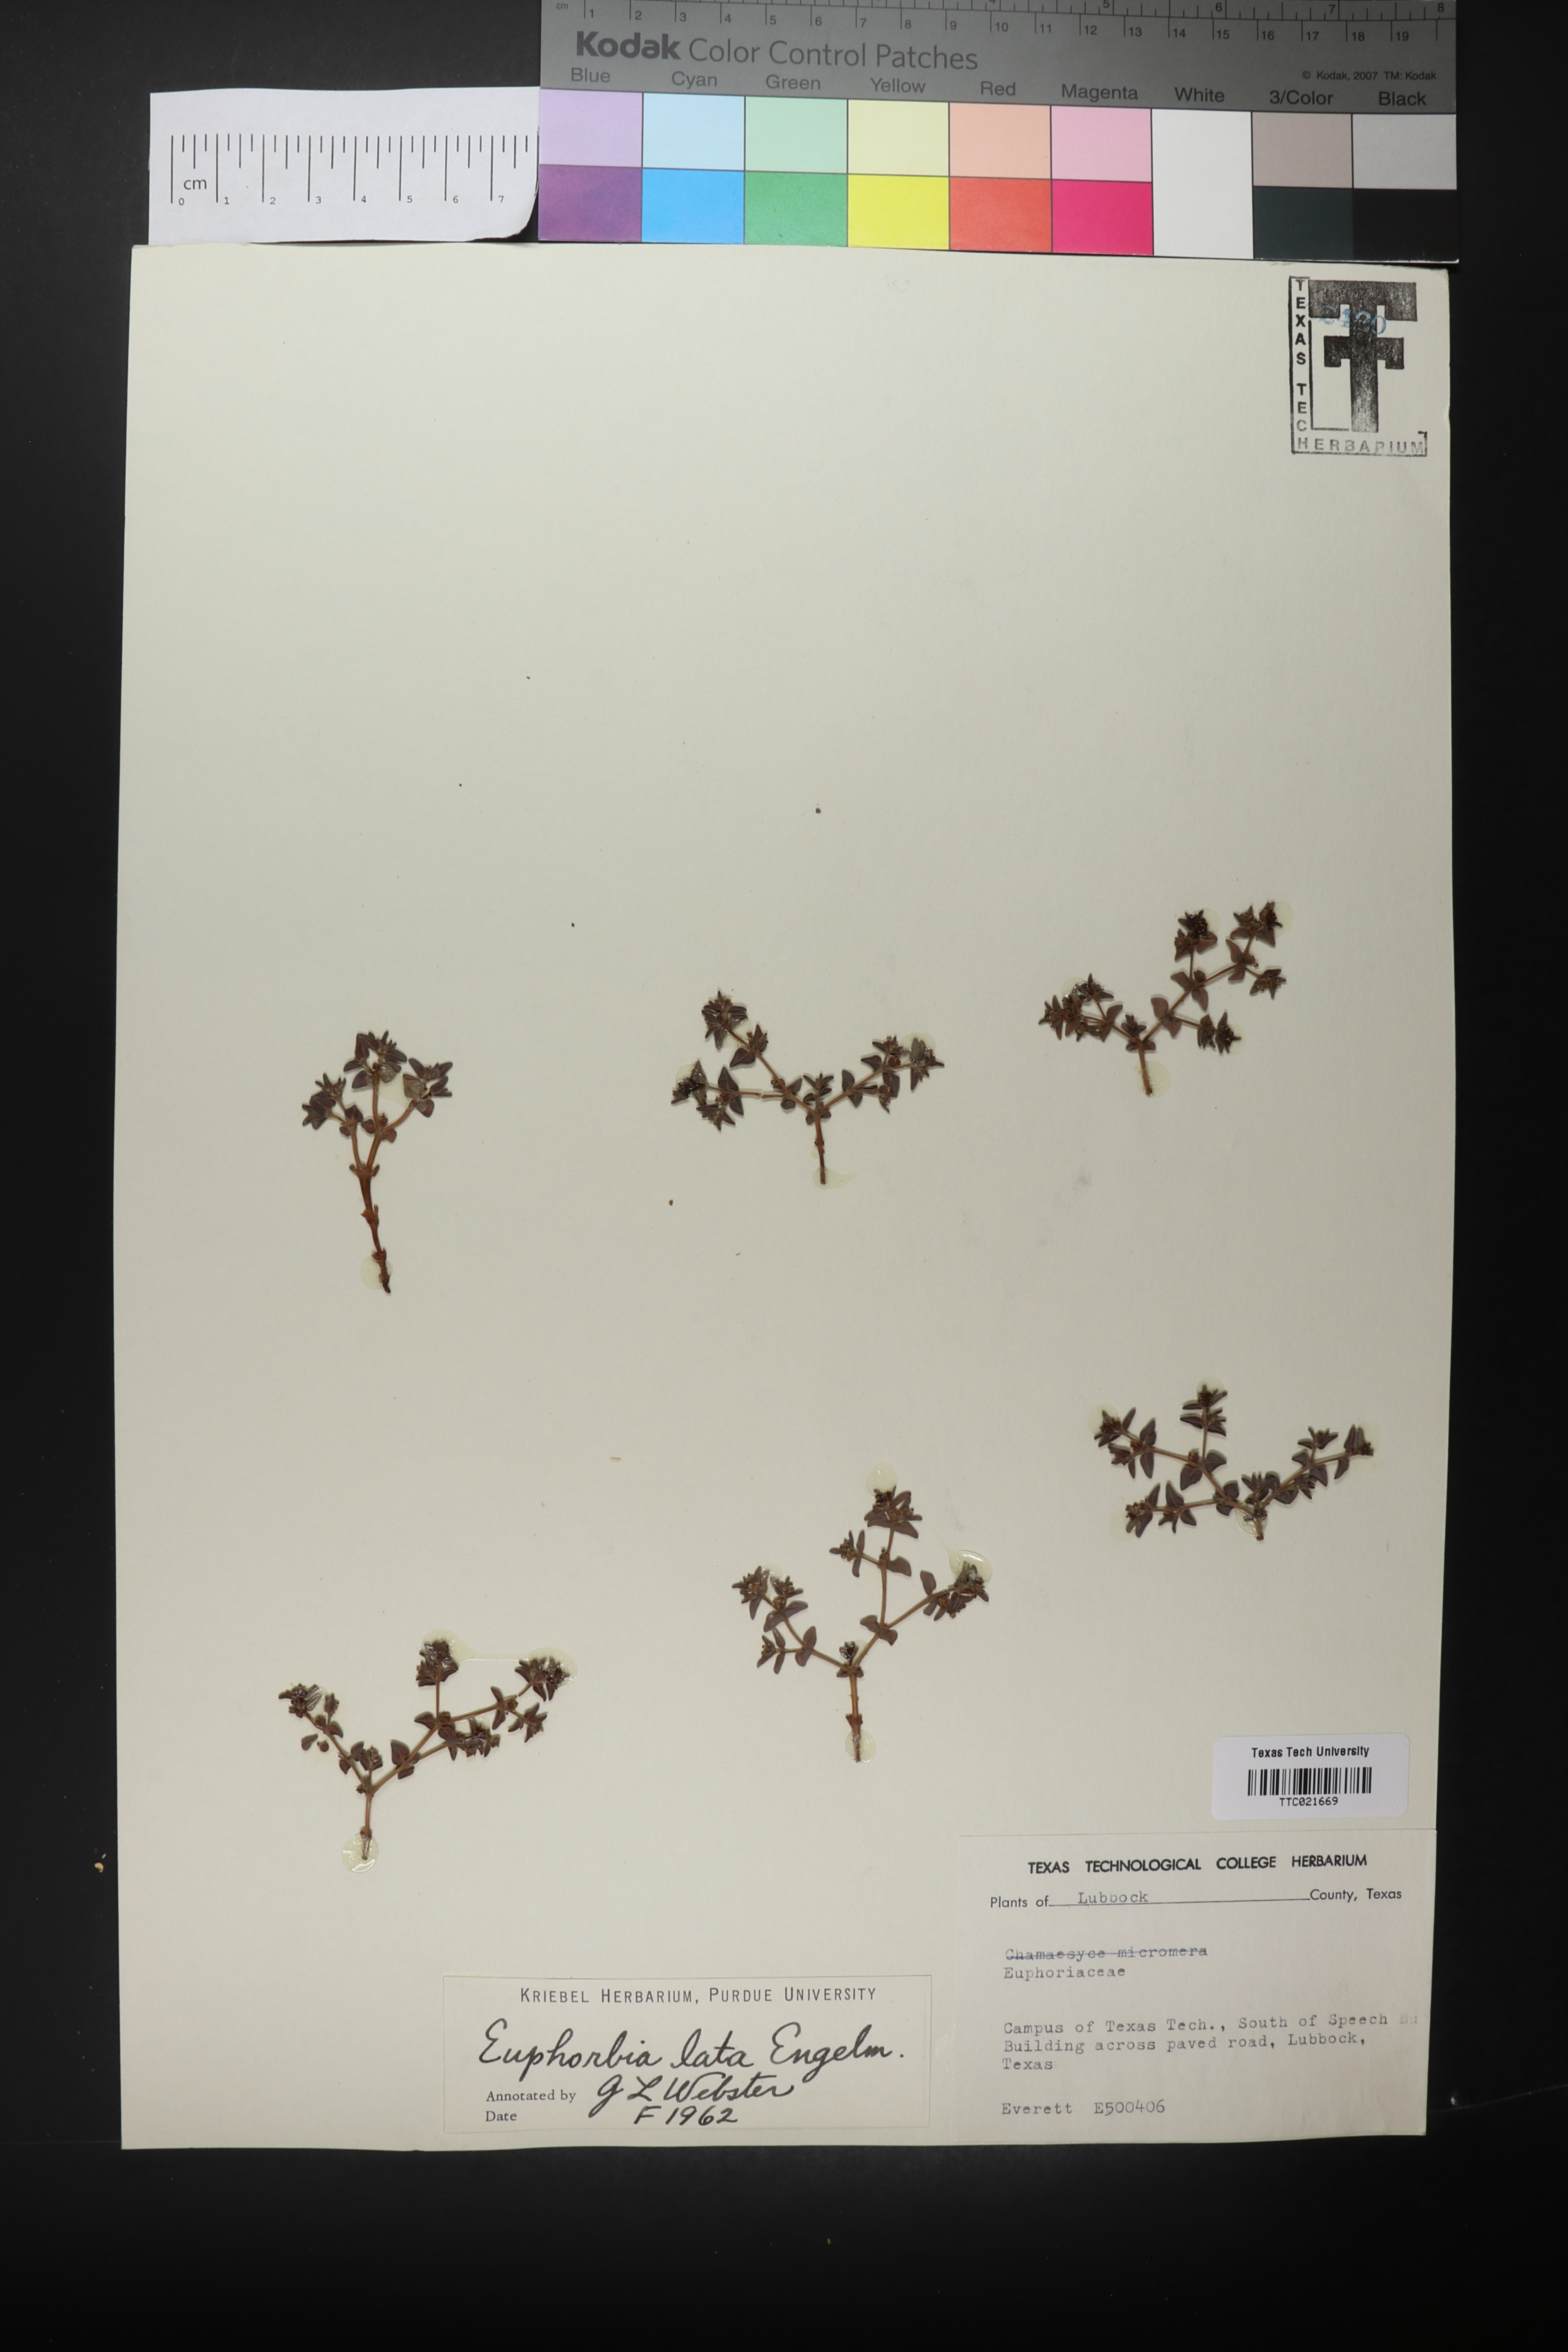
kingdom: Plantae
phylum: Tracheophyta
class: Magnoliopsida
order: Malpighiales
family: Euphorbiaceae
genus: Euphorbia
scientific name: Euphorbia lata
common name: Hoary euphorbia
